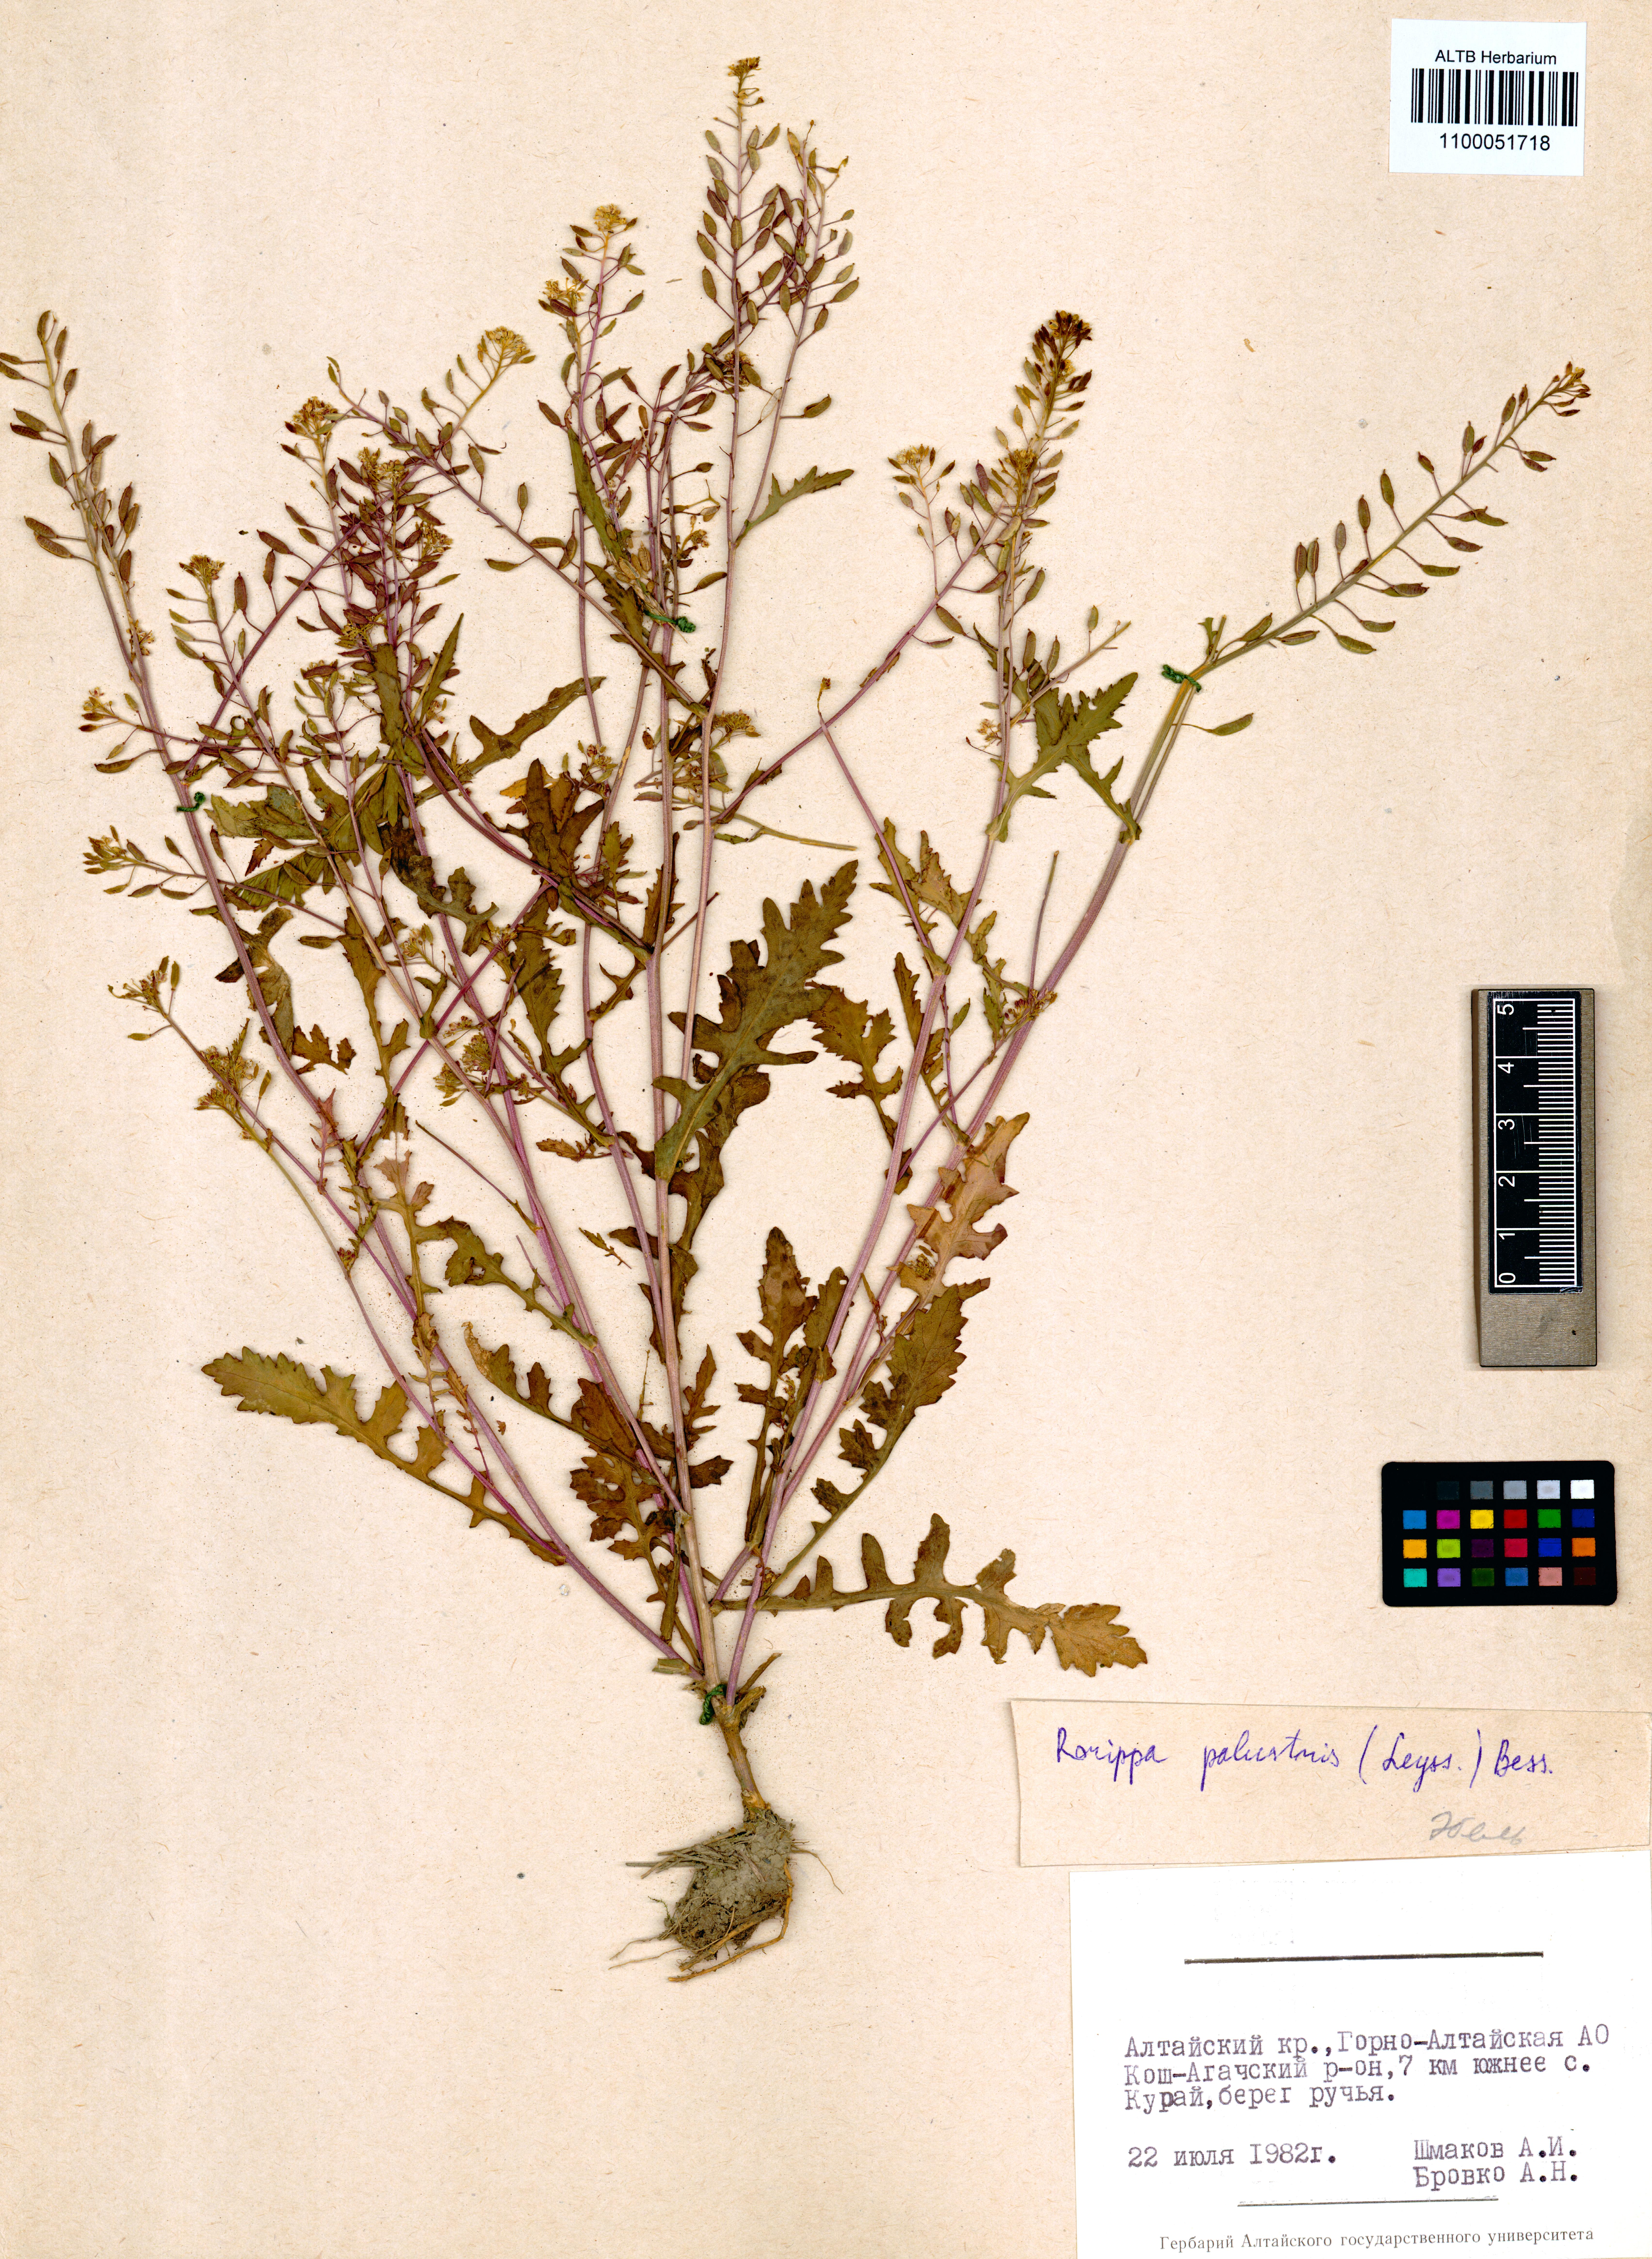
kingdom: Plantae
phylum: Tracheophyta
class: Magnoliopsida
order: Brassicales
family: Brassicaceae
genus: Rorippa
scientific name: Rorippa palustris
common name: Marsh yellow-cress
